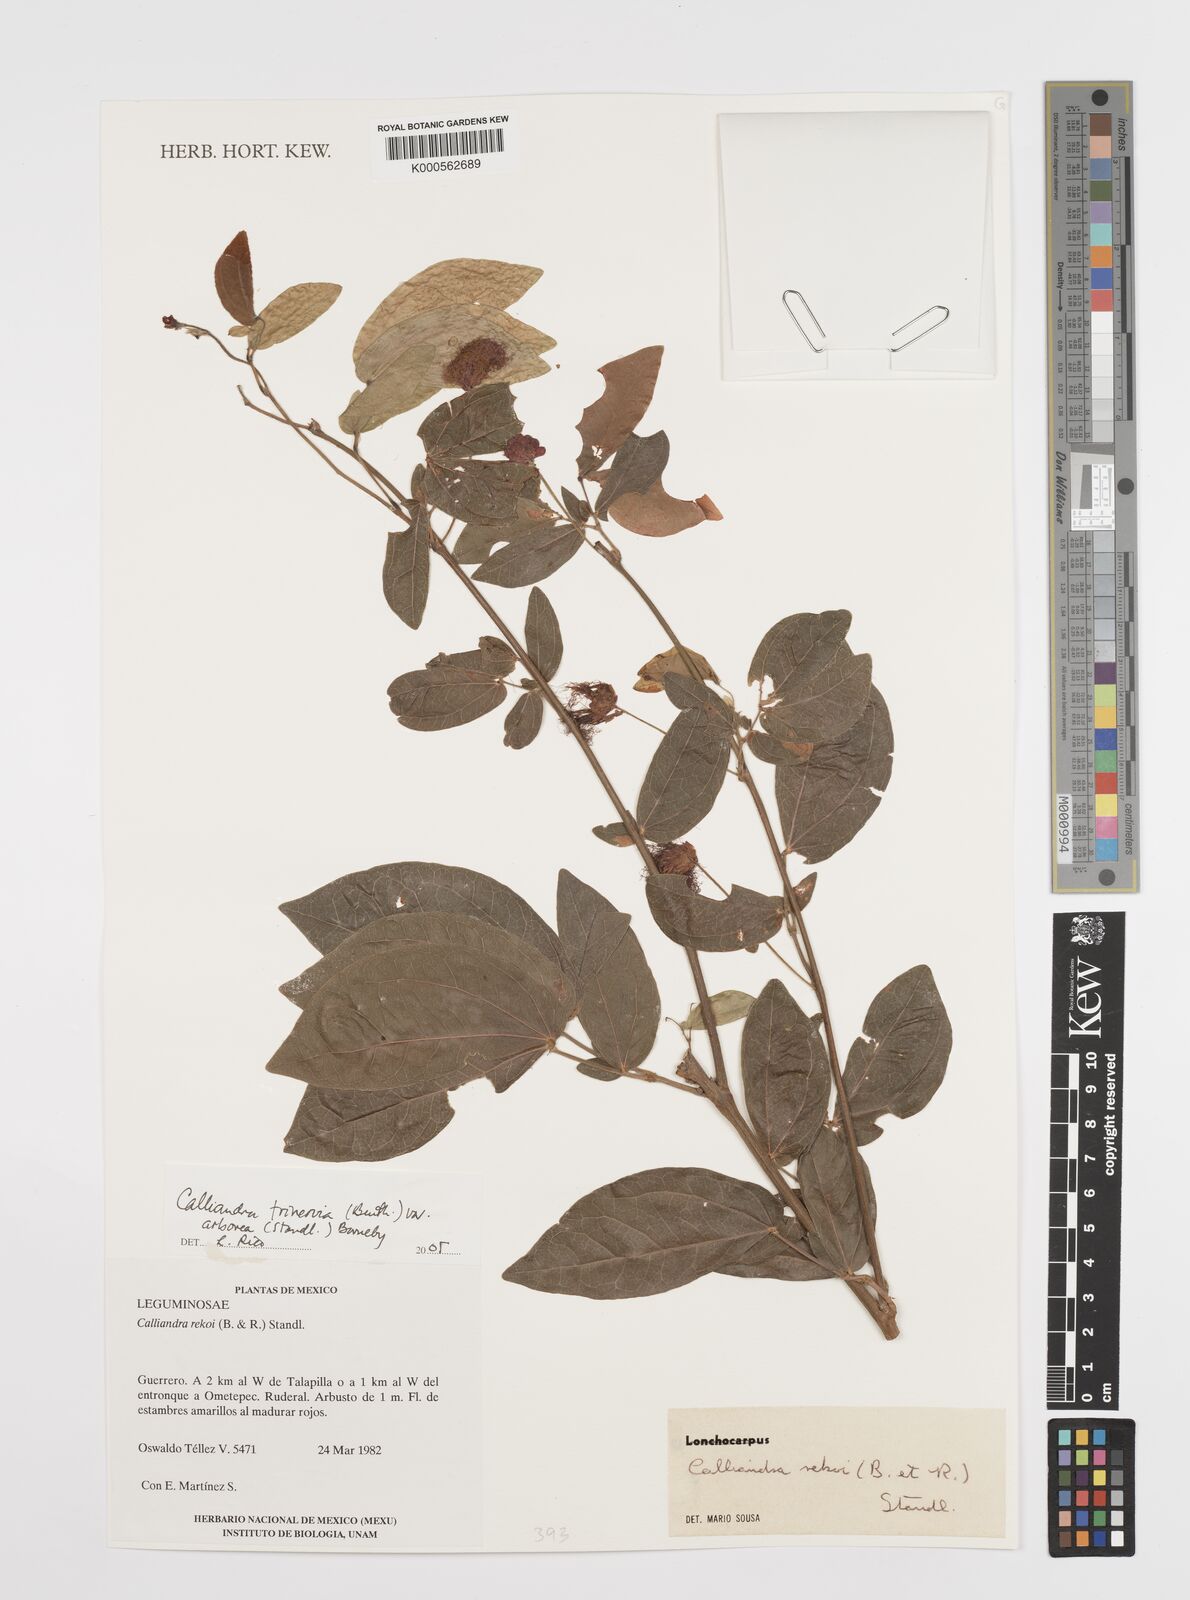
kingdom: Plantae
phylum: Tracheophyta
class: Magnoliopsida
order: Fabales
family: Fabaceae
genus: Calliandra
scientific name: Calliandra trinervia
